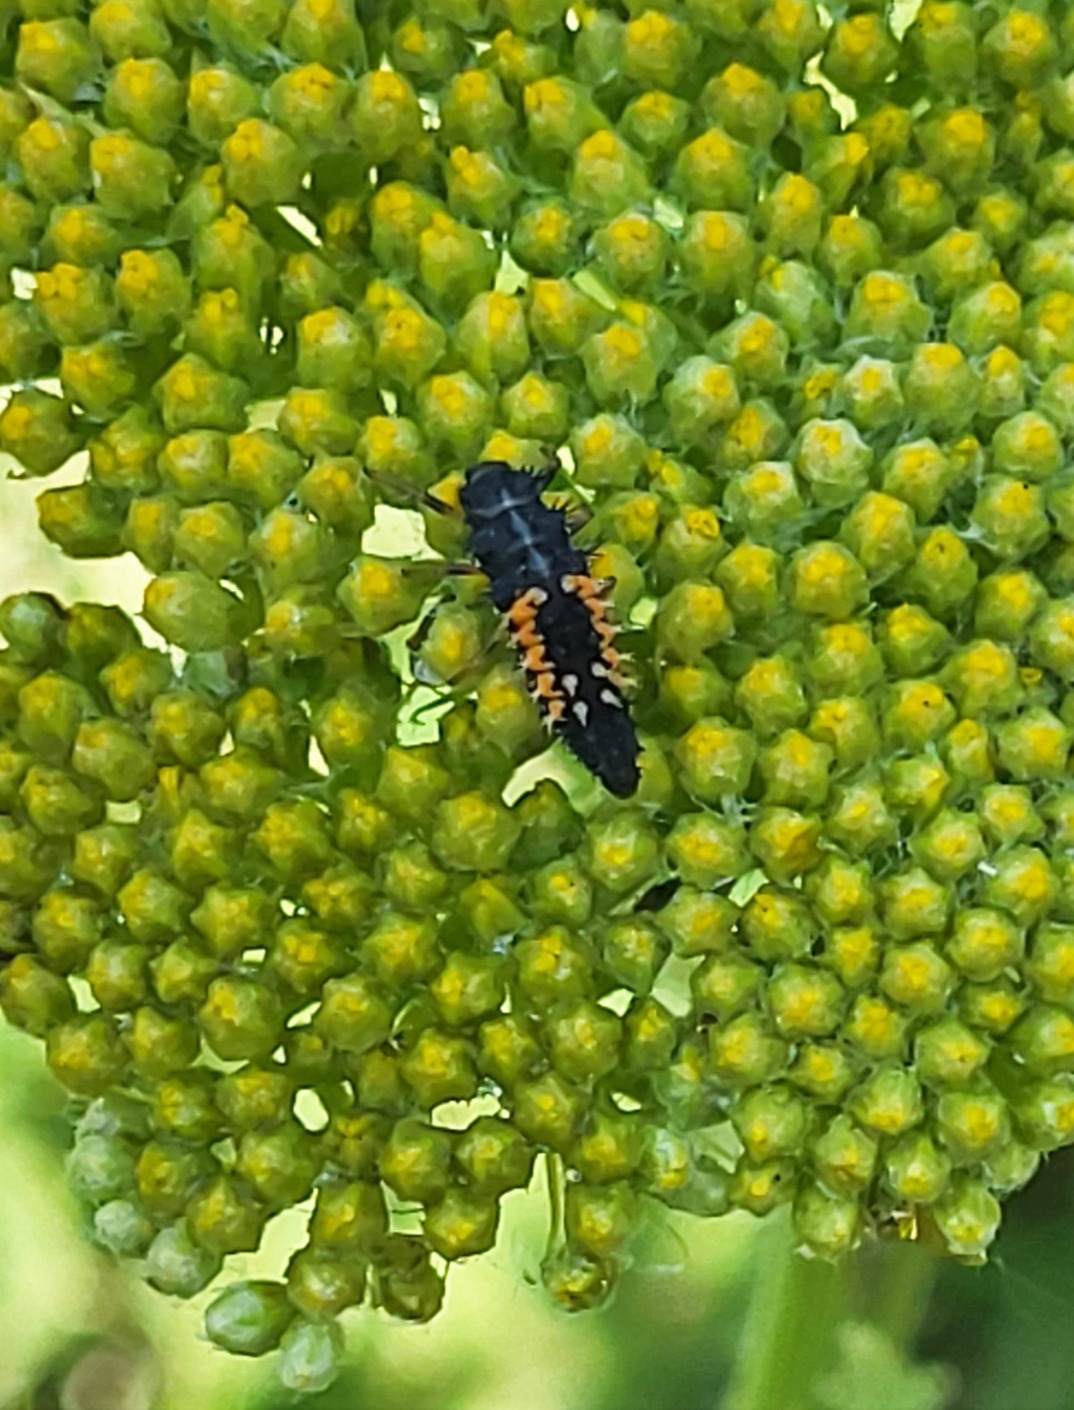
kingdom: Animalia
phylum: Arthropoda
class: Insecta
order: Coleoptera
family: Coccinellidae
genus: Harmonia
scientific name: Harmonia axyridis
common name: Harlekinmariehøne
